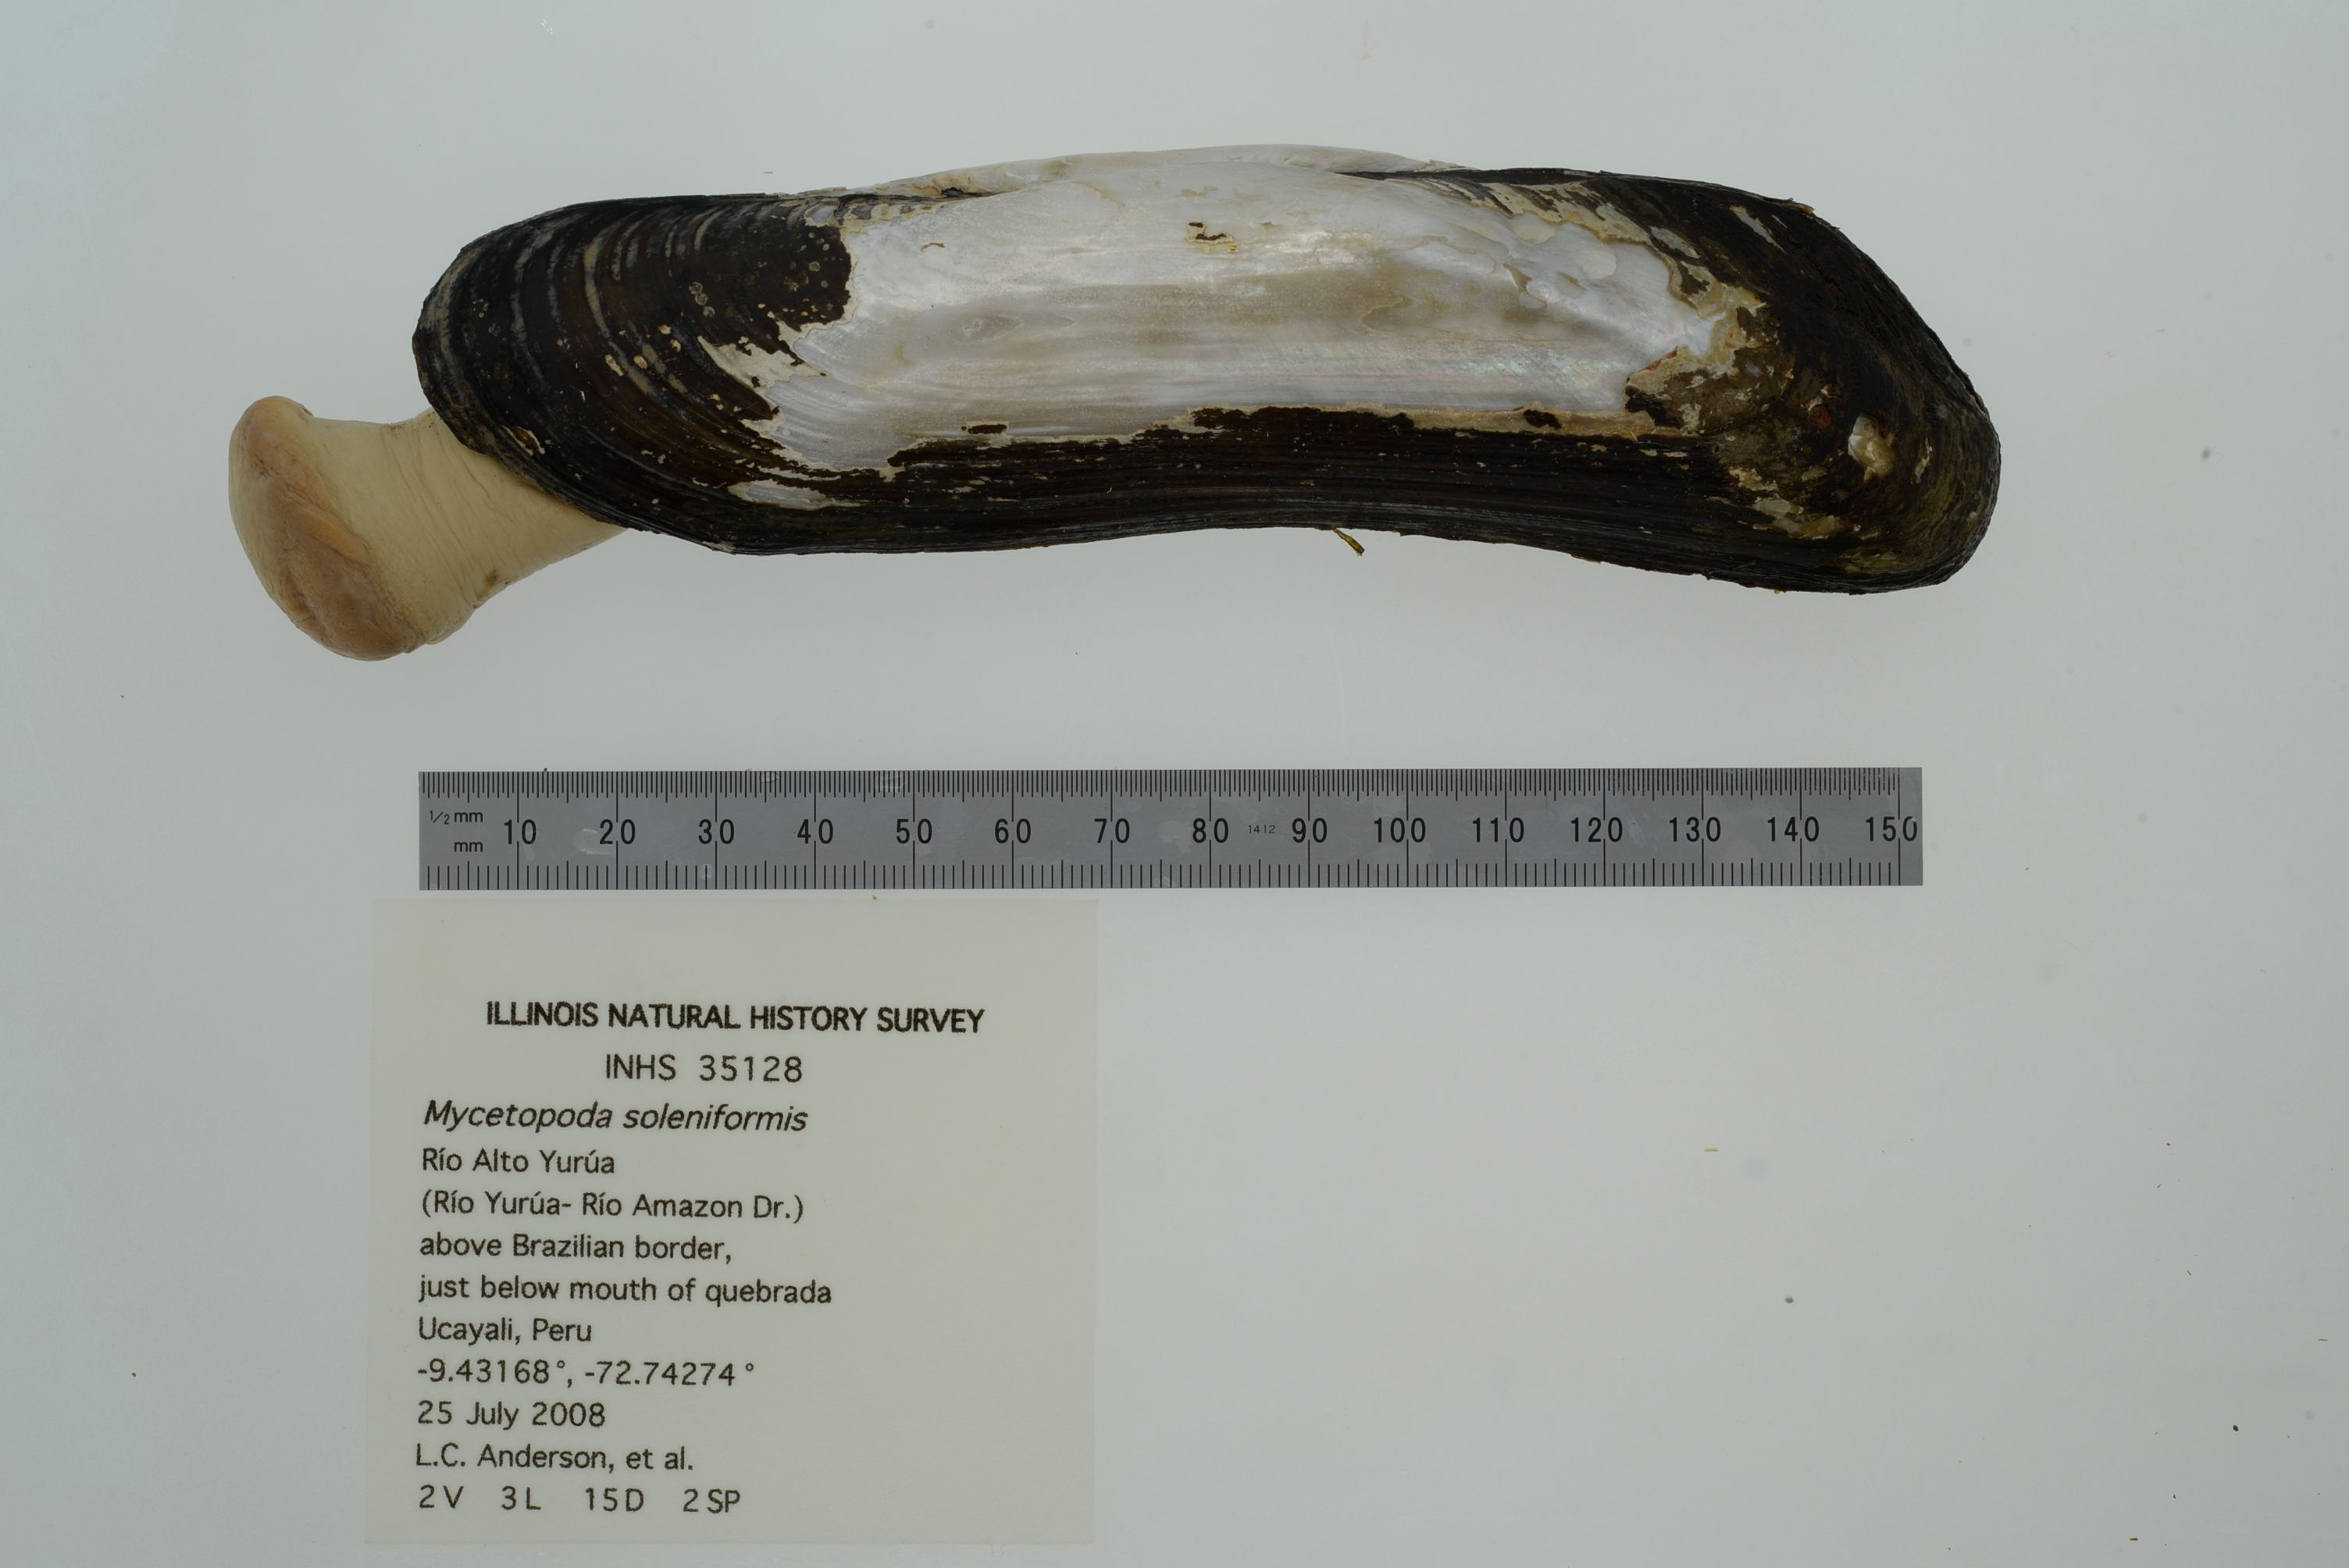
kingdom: Animalia
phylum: Mollusca
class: Bivalvia
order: Unionida
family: Mycetopodidae
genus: Mycetopoda
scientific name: Mycetopoda soleniformis
